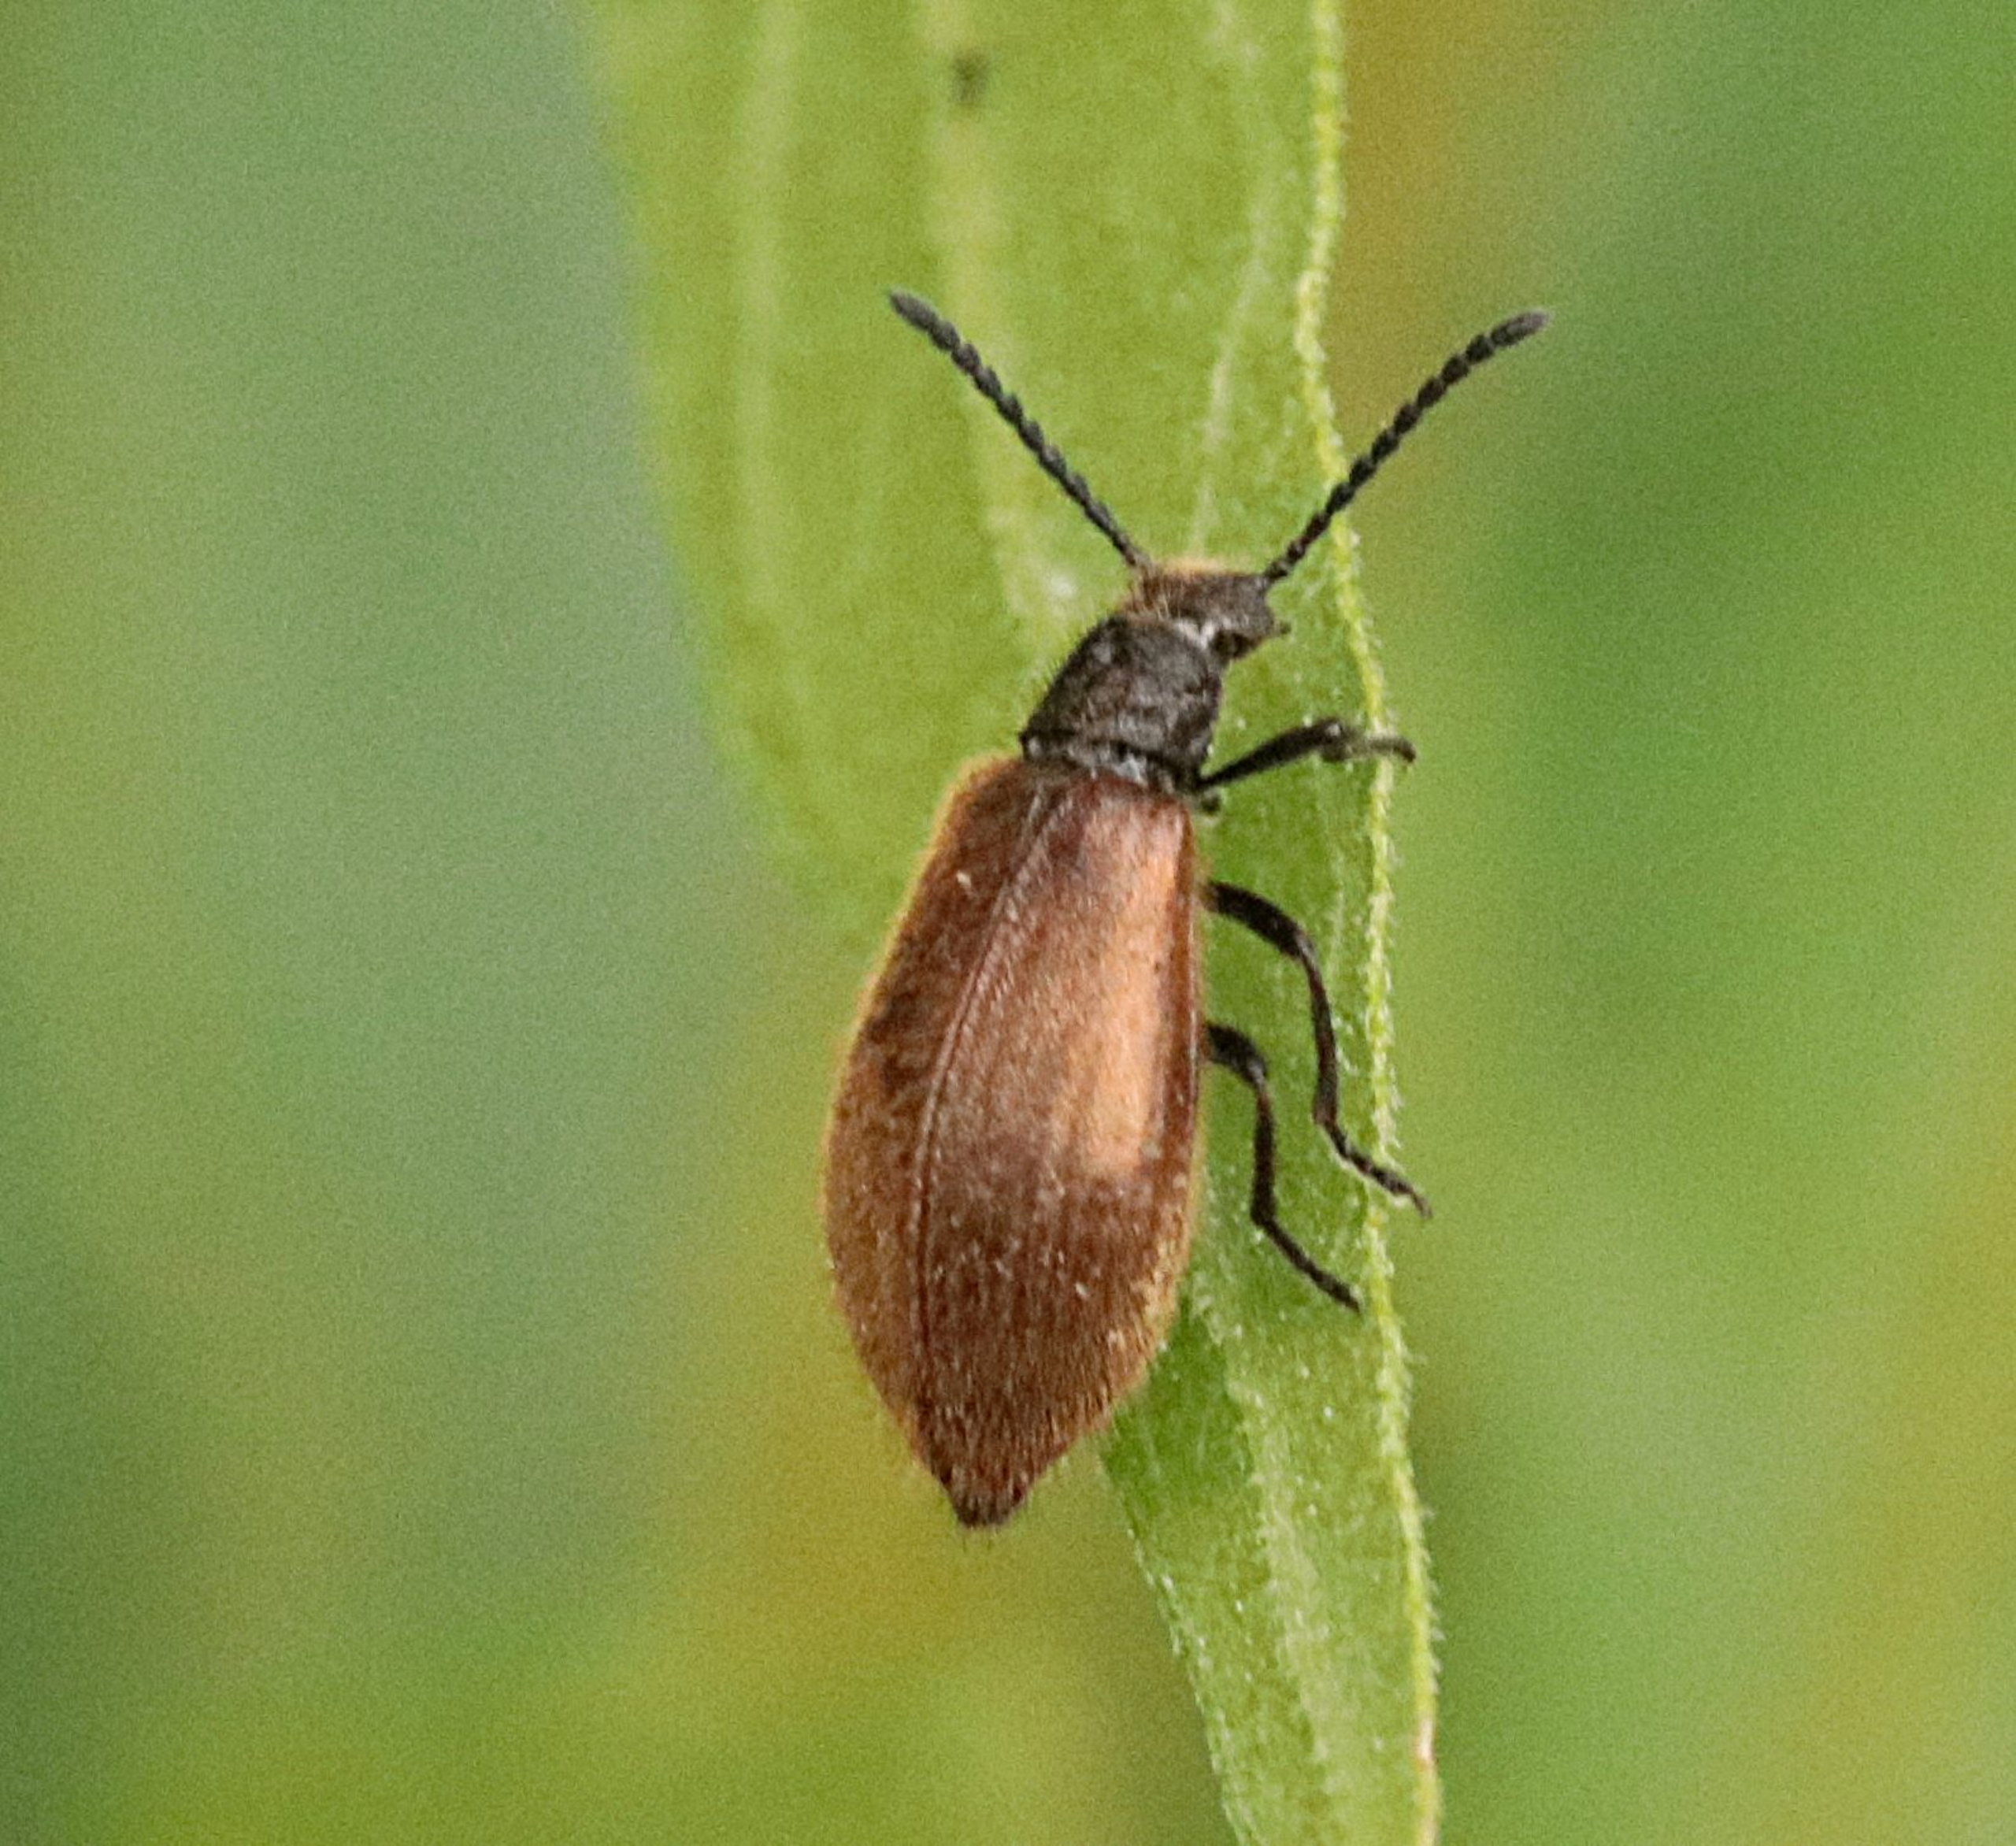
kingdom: Animalia
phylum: Arthropoda
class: Insecta
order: Coleoptera
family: Tenebrionidae
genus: Lagria
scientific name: Lagria hirta
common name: Håret skyggebille
